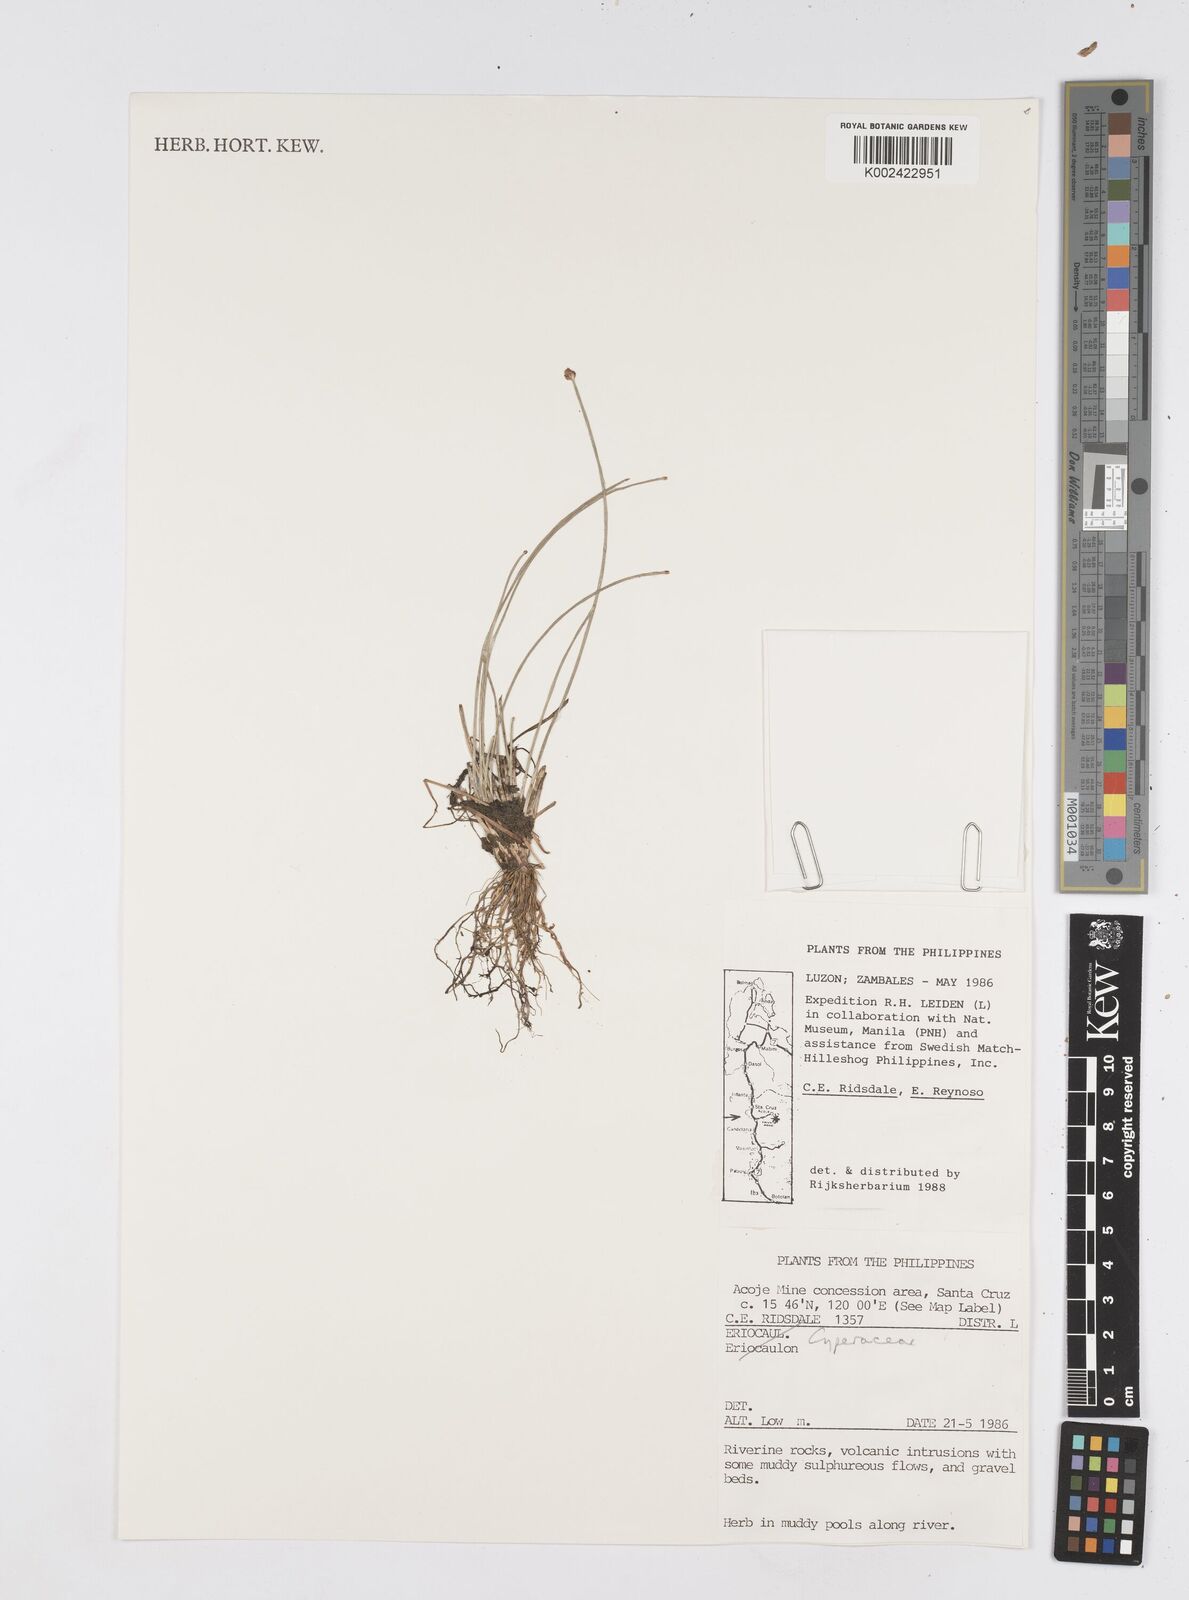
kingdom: Plantae
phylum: Tracheophyta
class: Liliopsida
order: Poales
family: Cyperaceae
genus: Eleocharis
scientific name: Eleocharis
